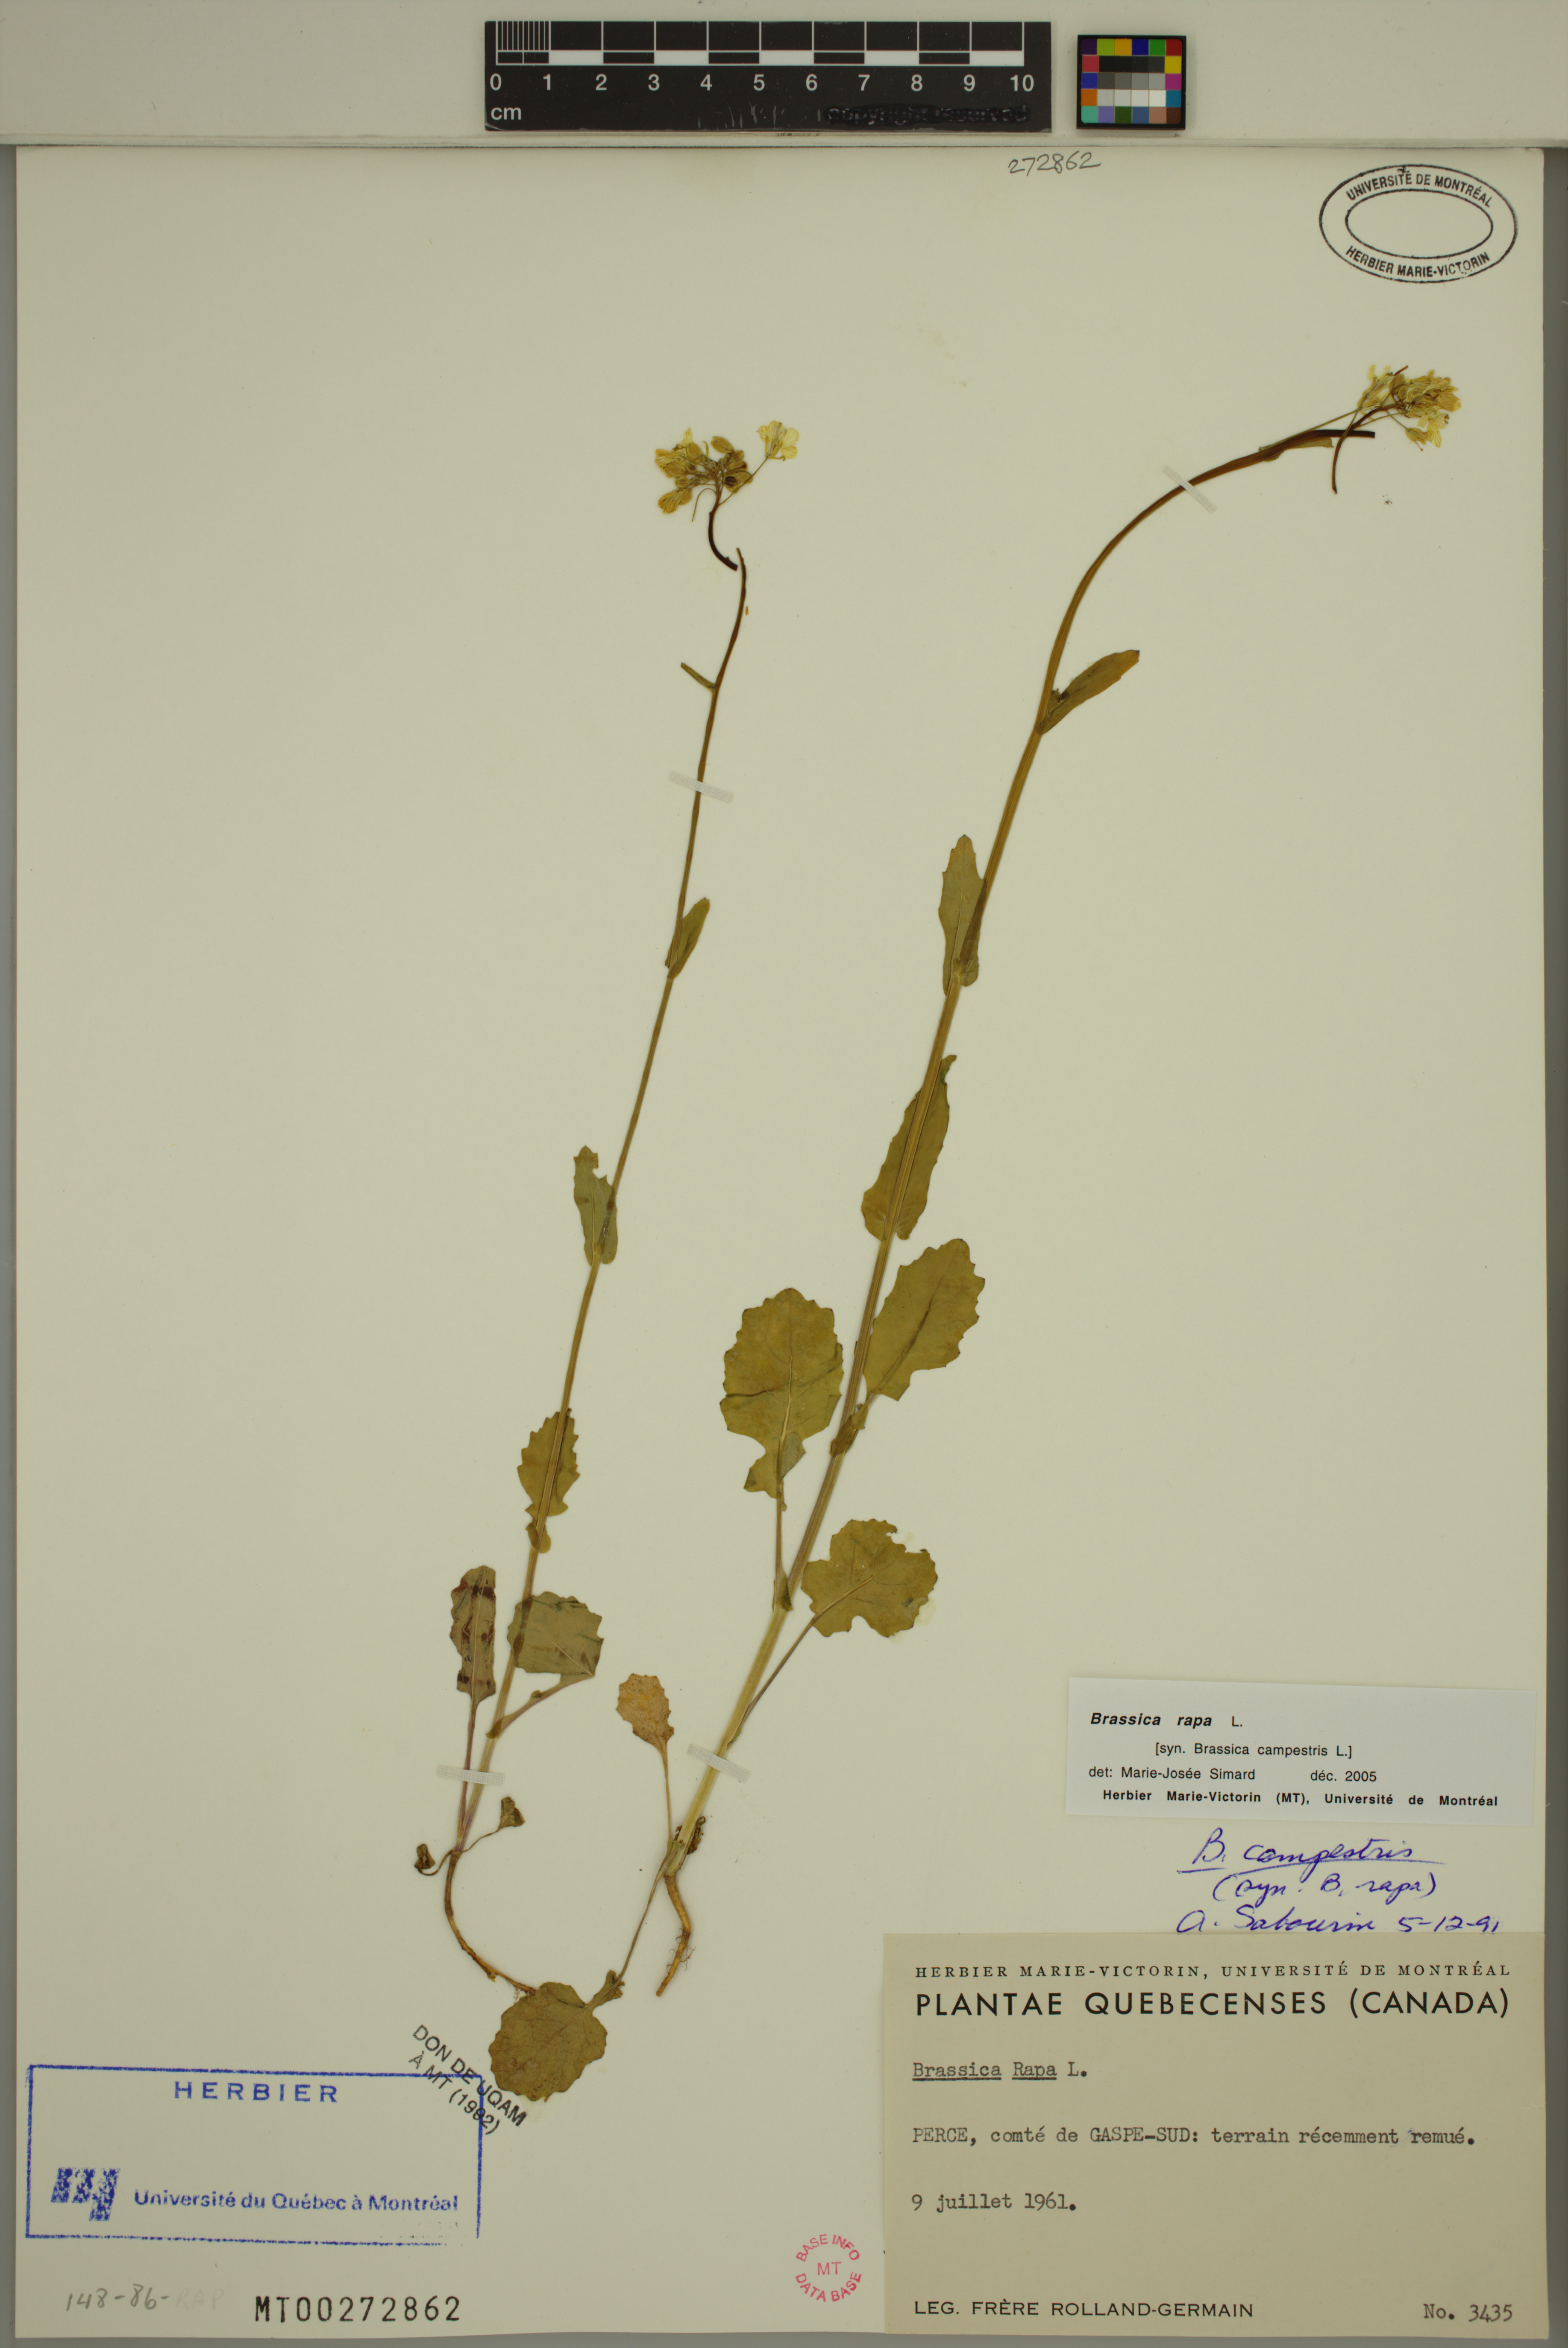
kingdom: Plantae
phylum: Tracheophyta
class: Magnoliopsida
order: Brassicales
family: Brassicaceae
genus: Brassica
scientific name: Brassica rapa
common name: Field mustard
